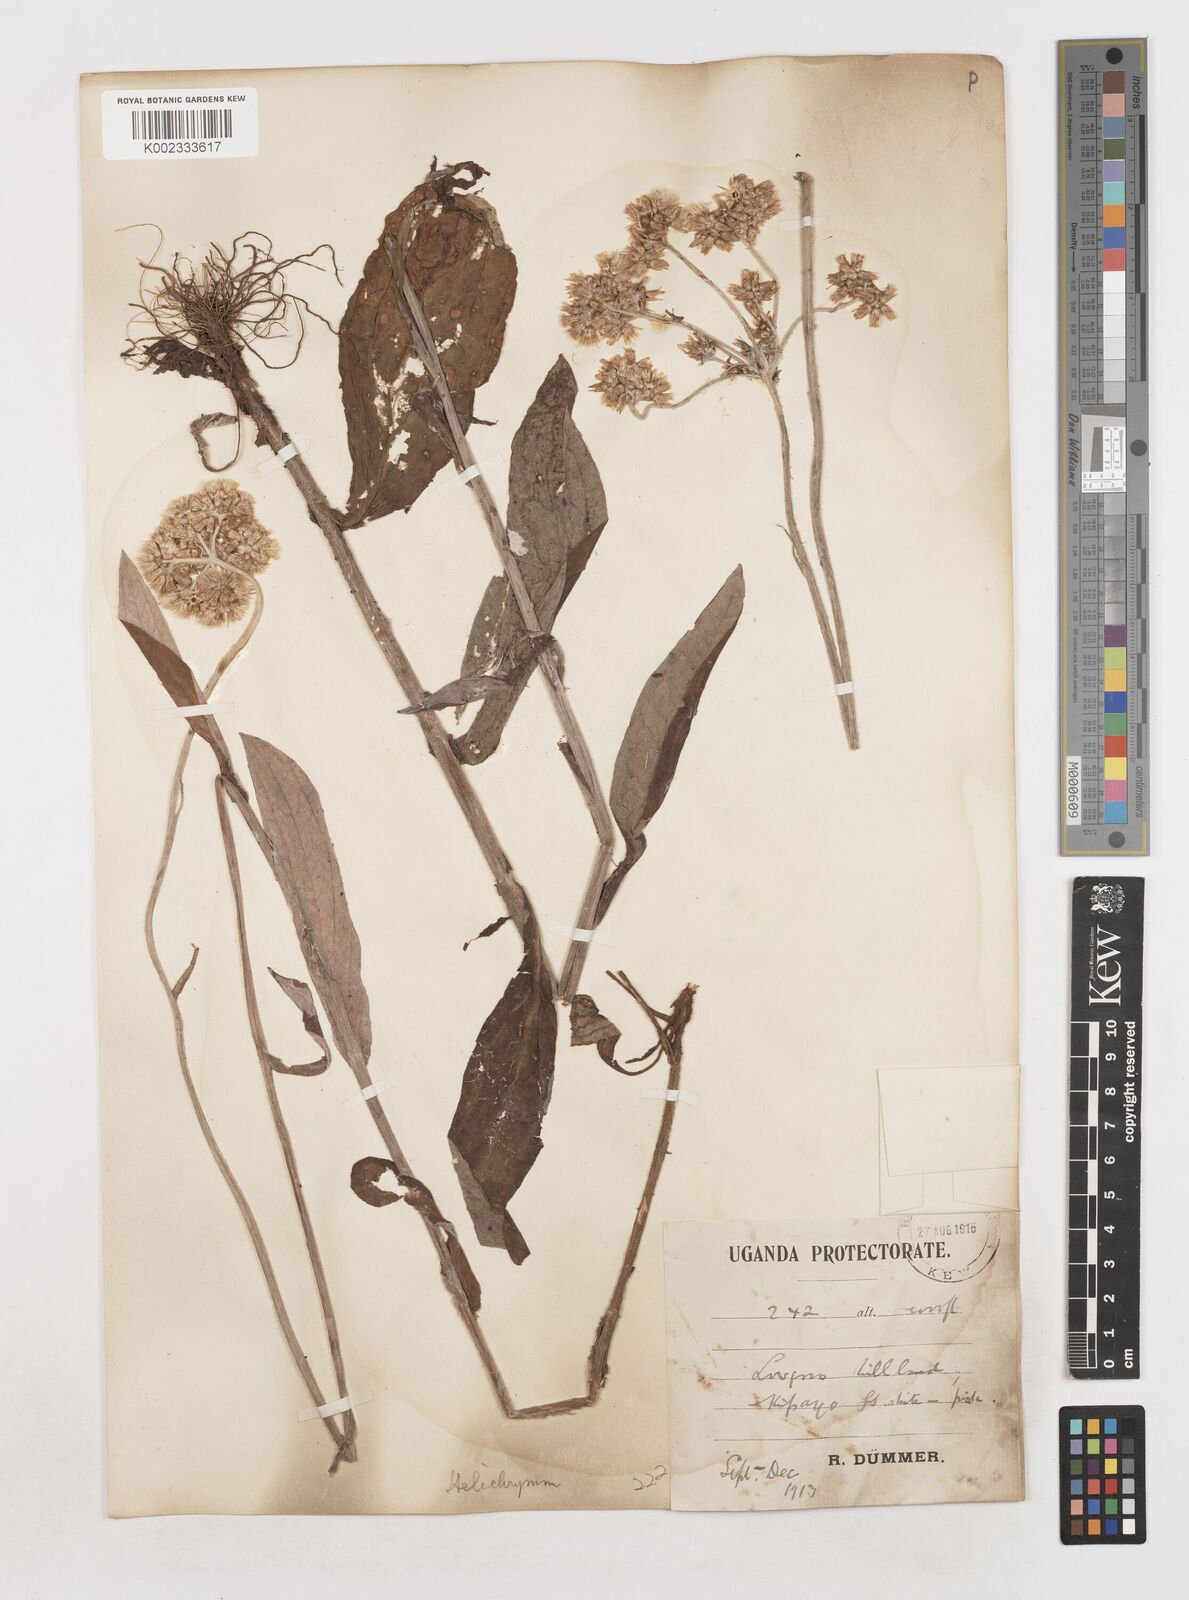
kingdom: Plantae
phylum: Tracheophyta
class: Magnoliopsida
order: Asterales
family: Asteraceae
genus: Helichrysum
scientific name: Helichrysum globosum
